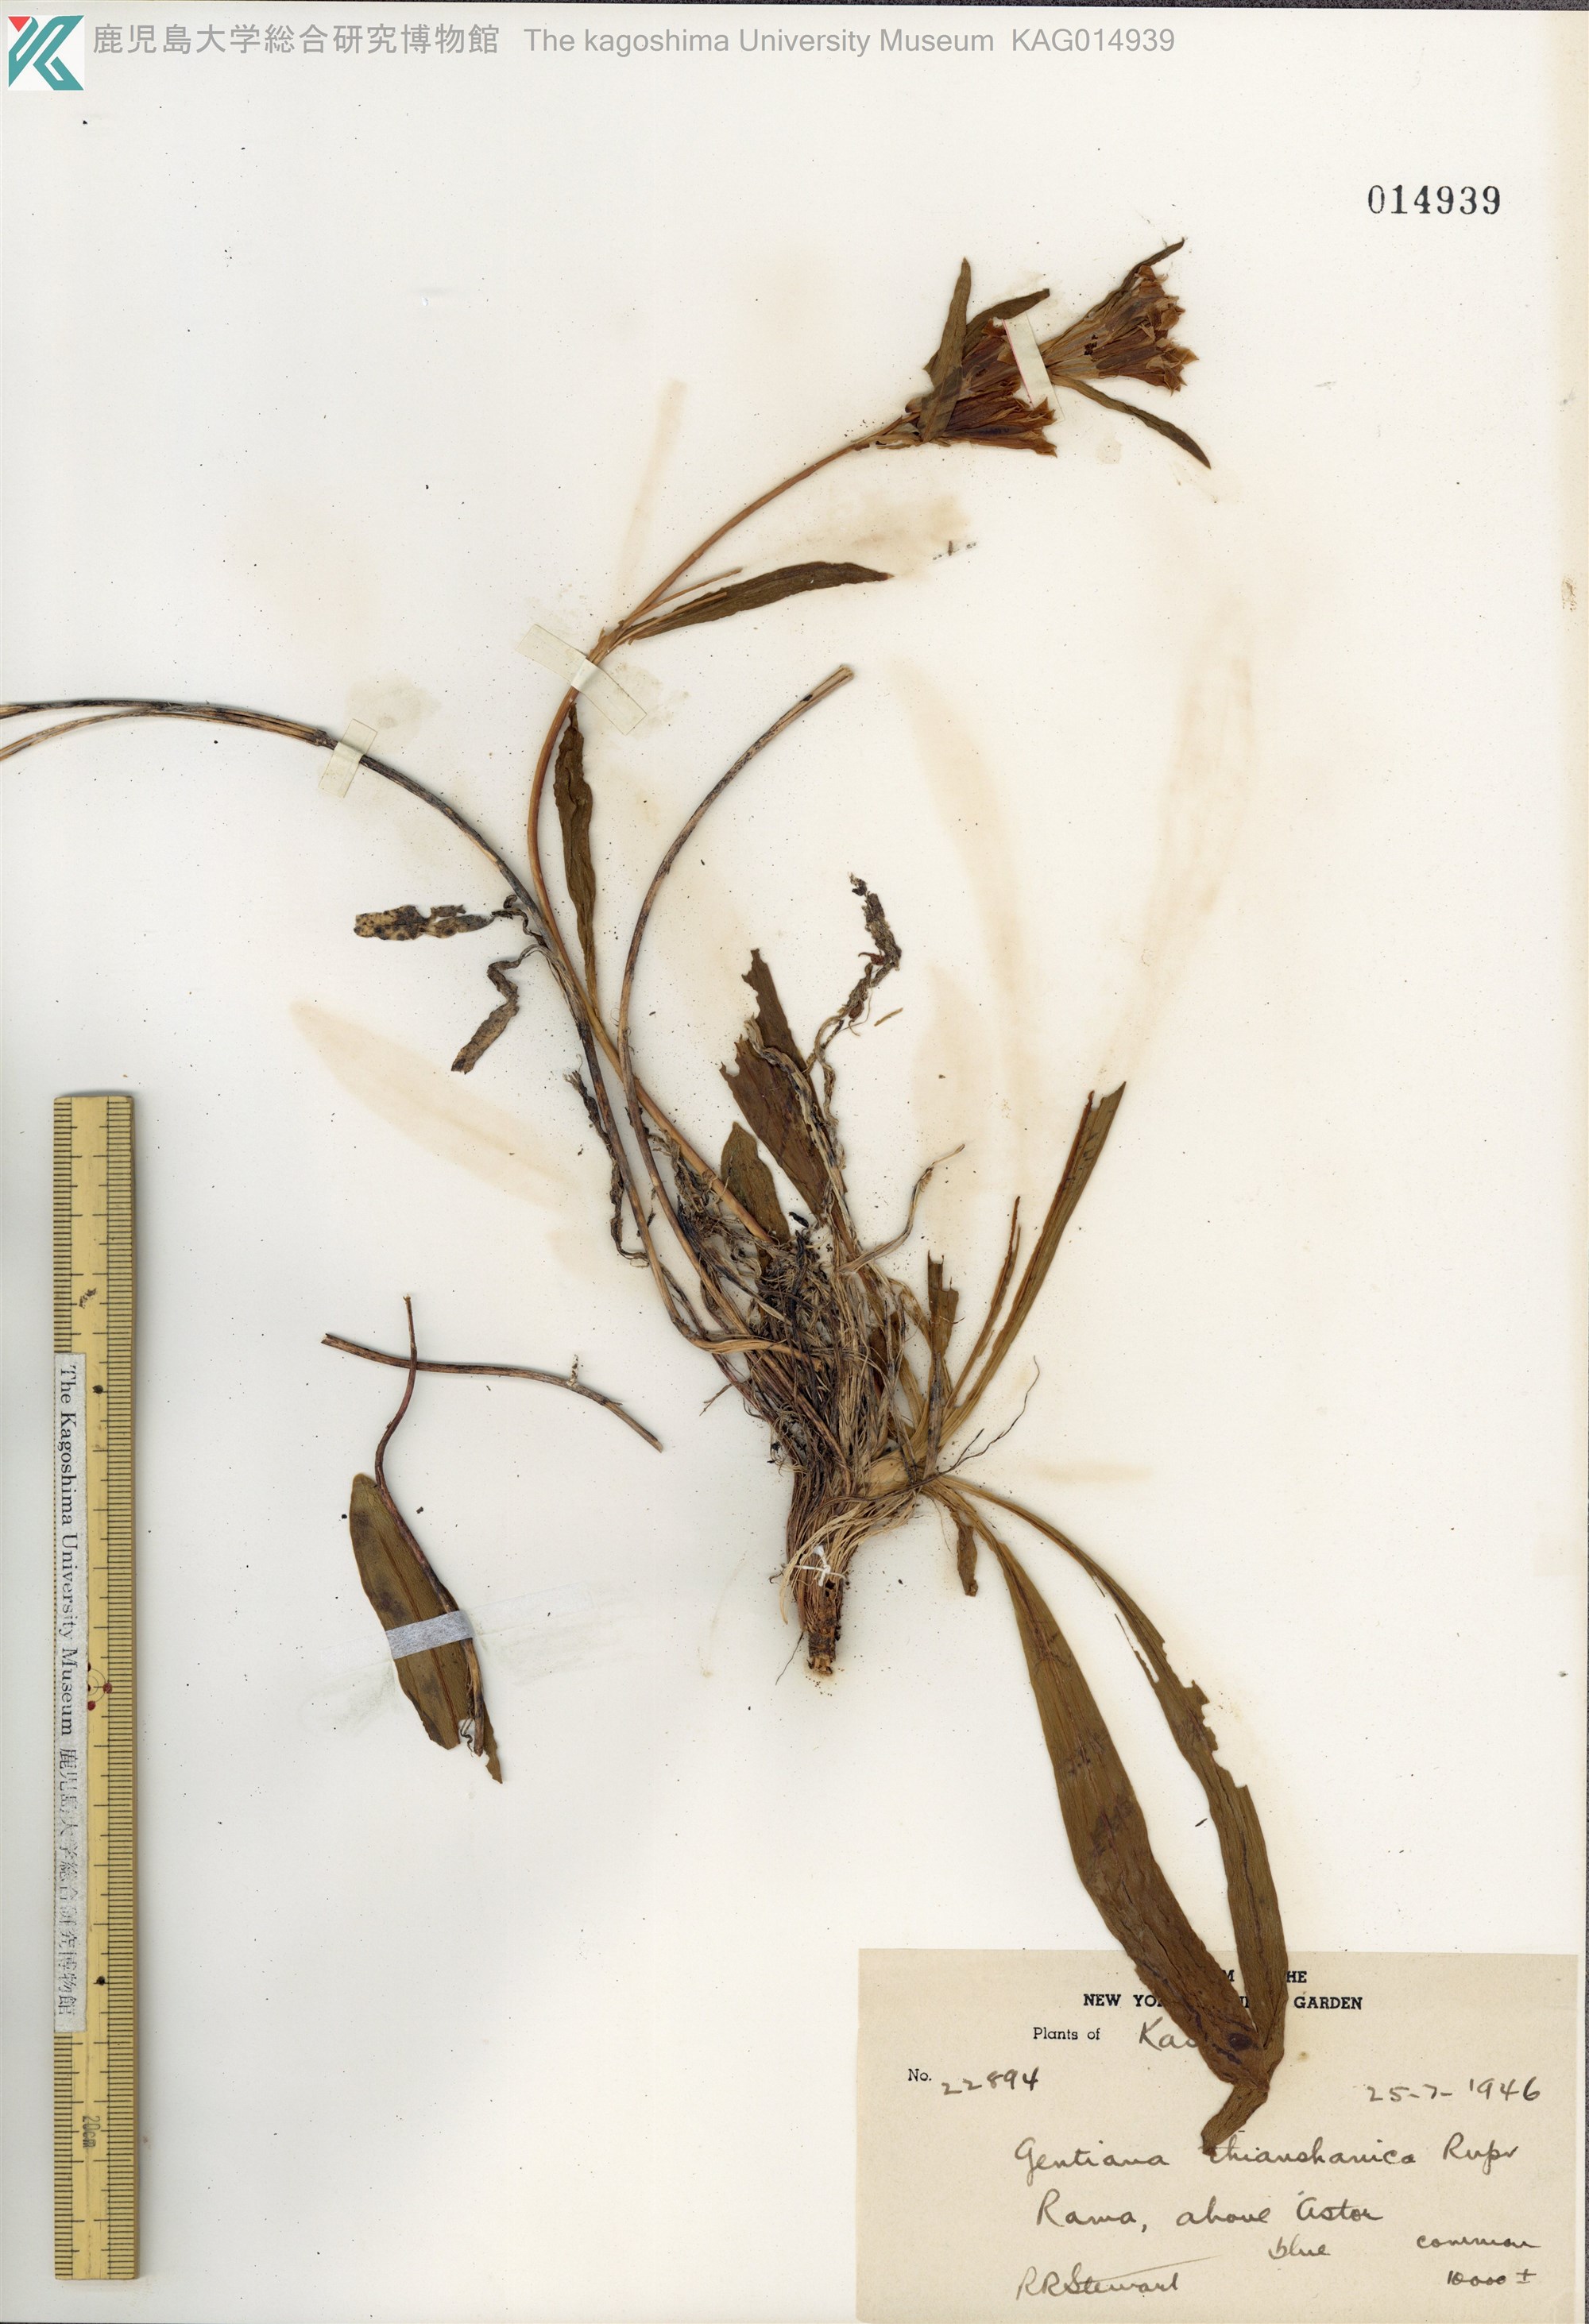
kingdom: Plantae
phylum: Tracheophyta
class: Magnoliopsida
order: Gentianales
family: Gentianaceae
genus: Gentiana
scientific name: Gentiana tianschanica
